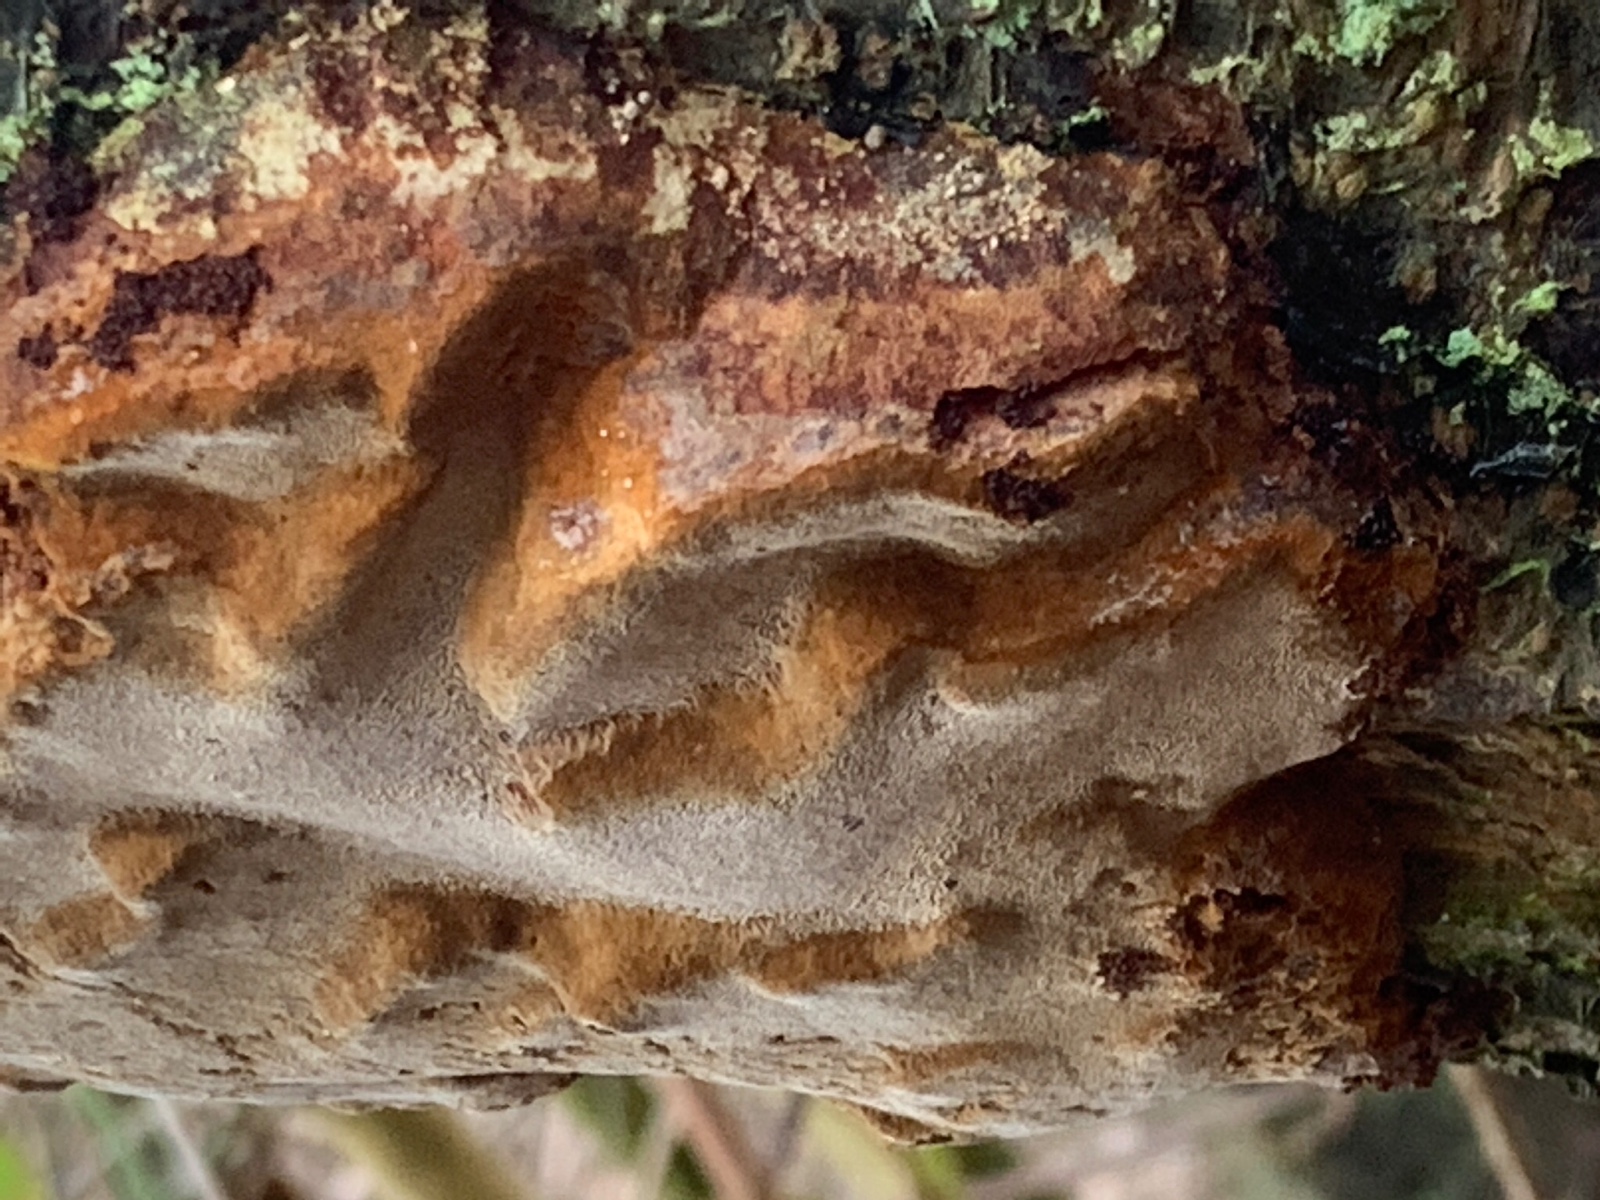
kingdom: Fungi
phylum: Basidiomycota
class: Agaricomycetes
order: Hymenochaetales
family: Hymenochaetaceae
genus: Phellinus
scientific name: Phellinus pomaceus
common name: blomme-ildporesvamp
